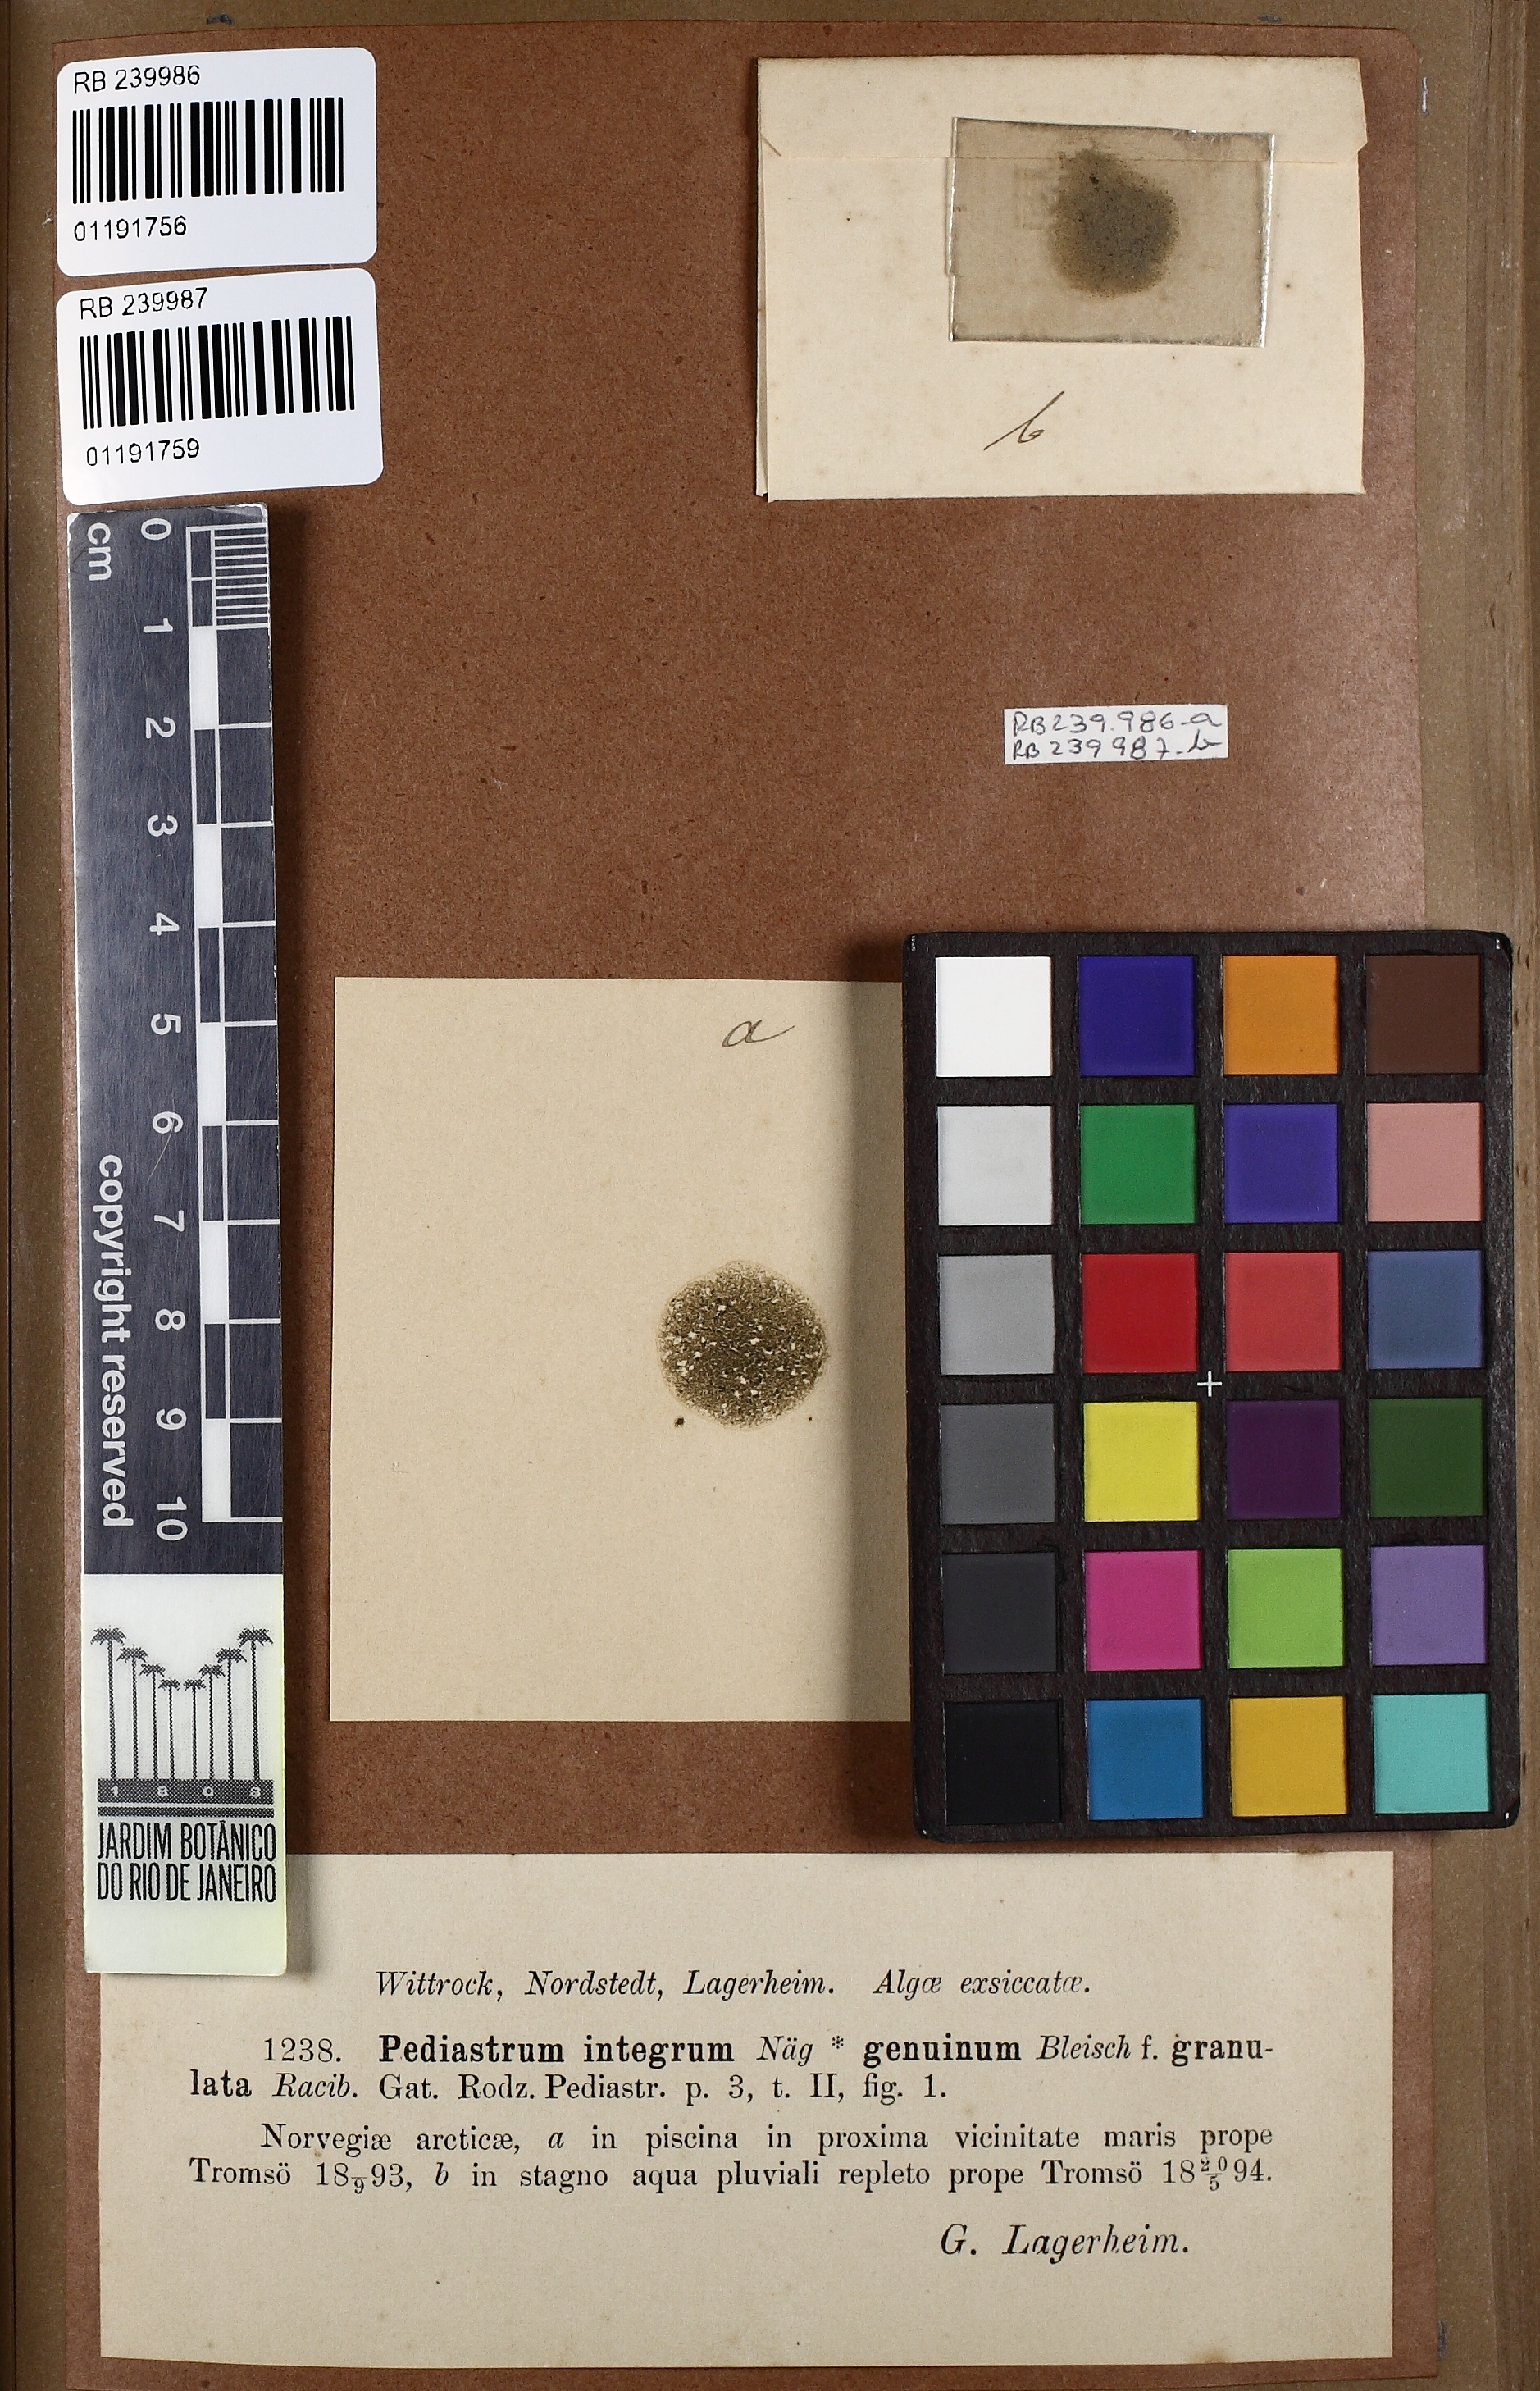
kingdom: Plantae
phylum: Chlorophyta
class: Chlorophyceae
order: Sphaeropleales
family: Hydrodictyaceae
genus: Pseudopediastrum
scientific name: Pseudopediastrum integrum
